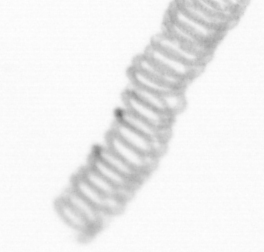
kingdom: Chromista
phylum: Ochrophyta
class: Bacillariophyceae
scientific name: Bacillariophyceae
